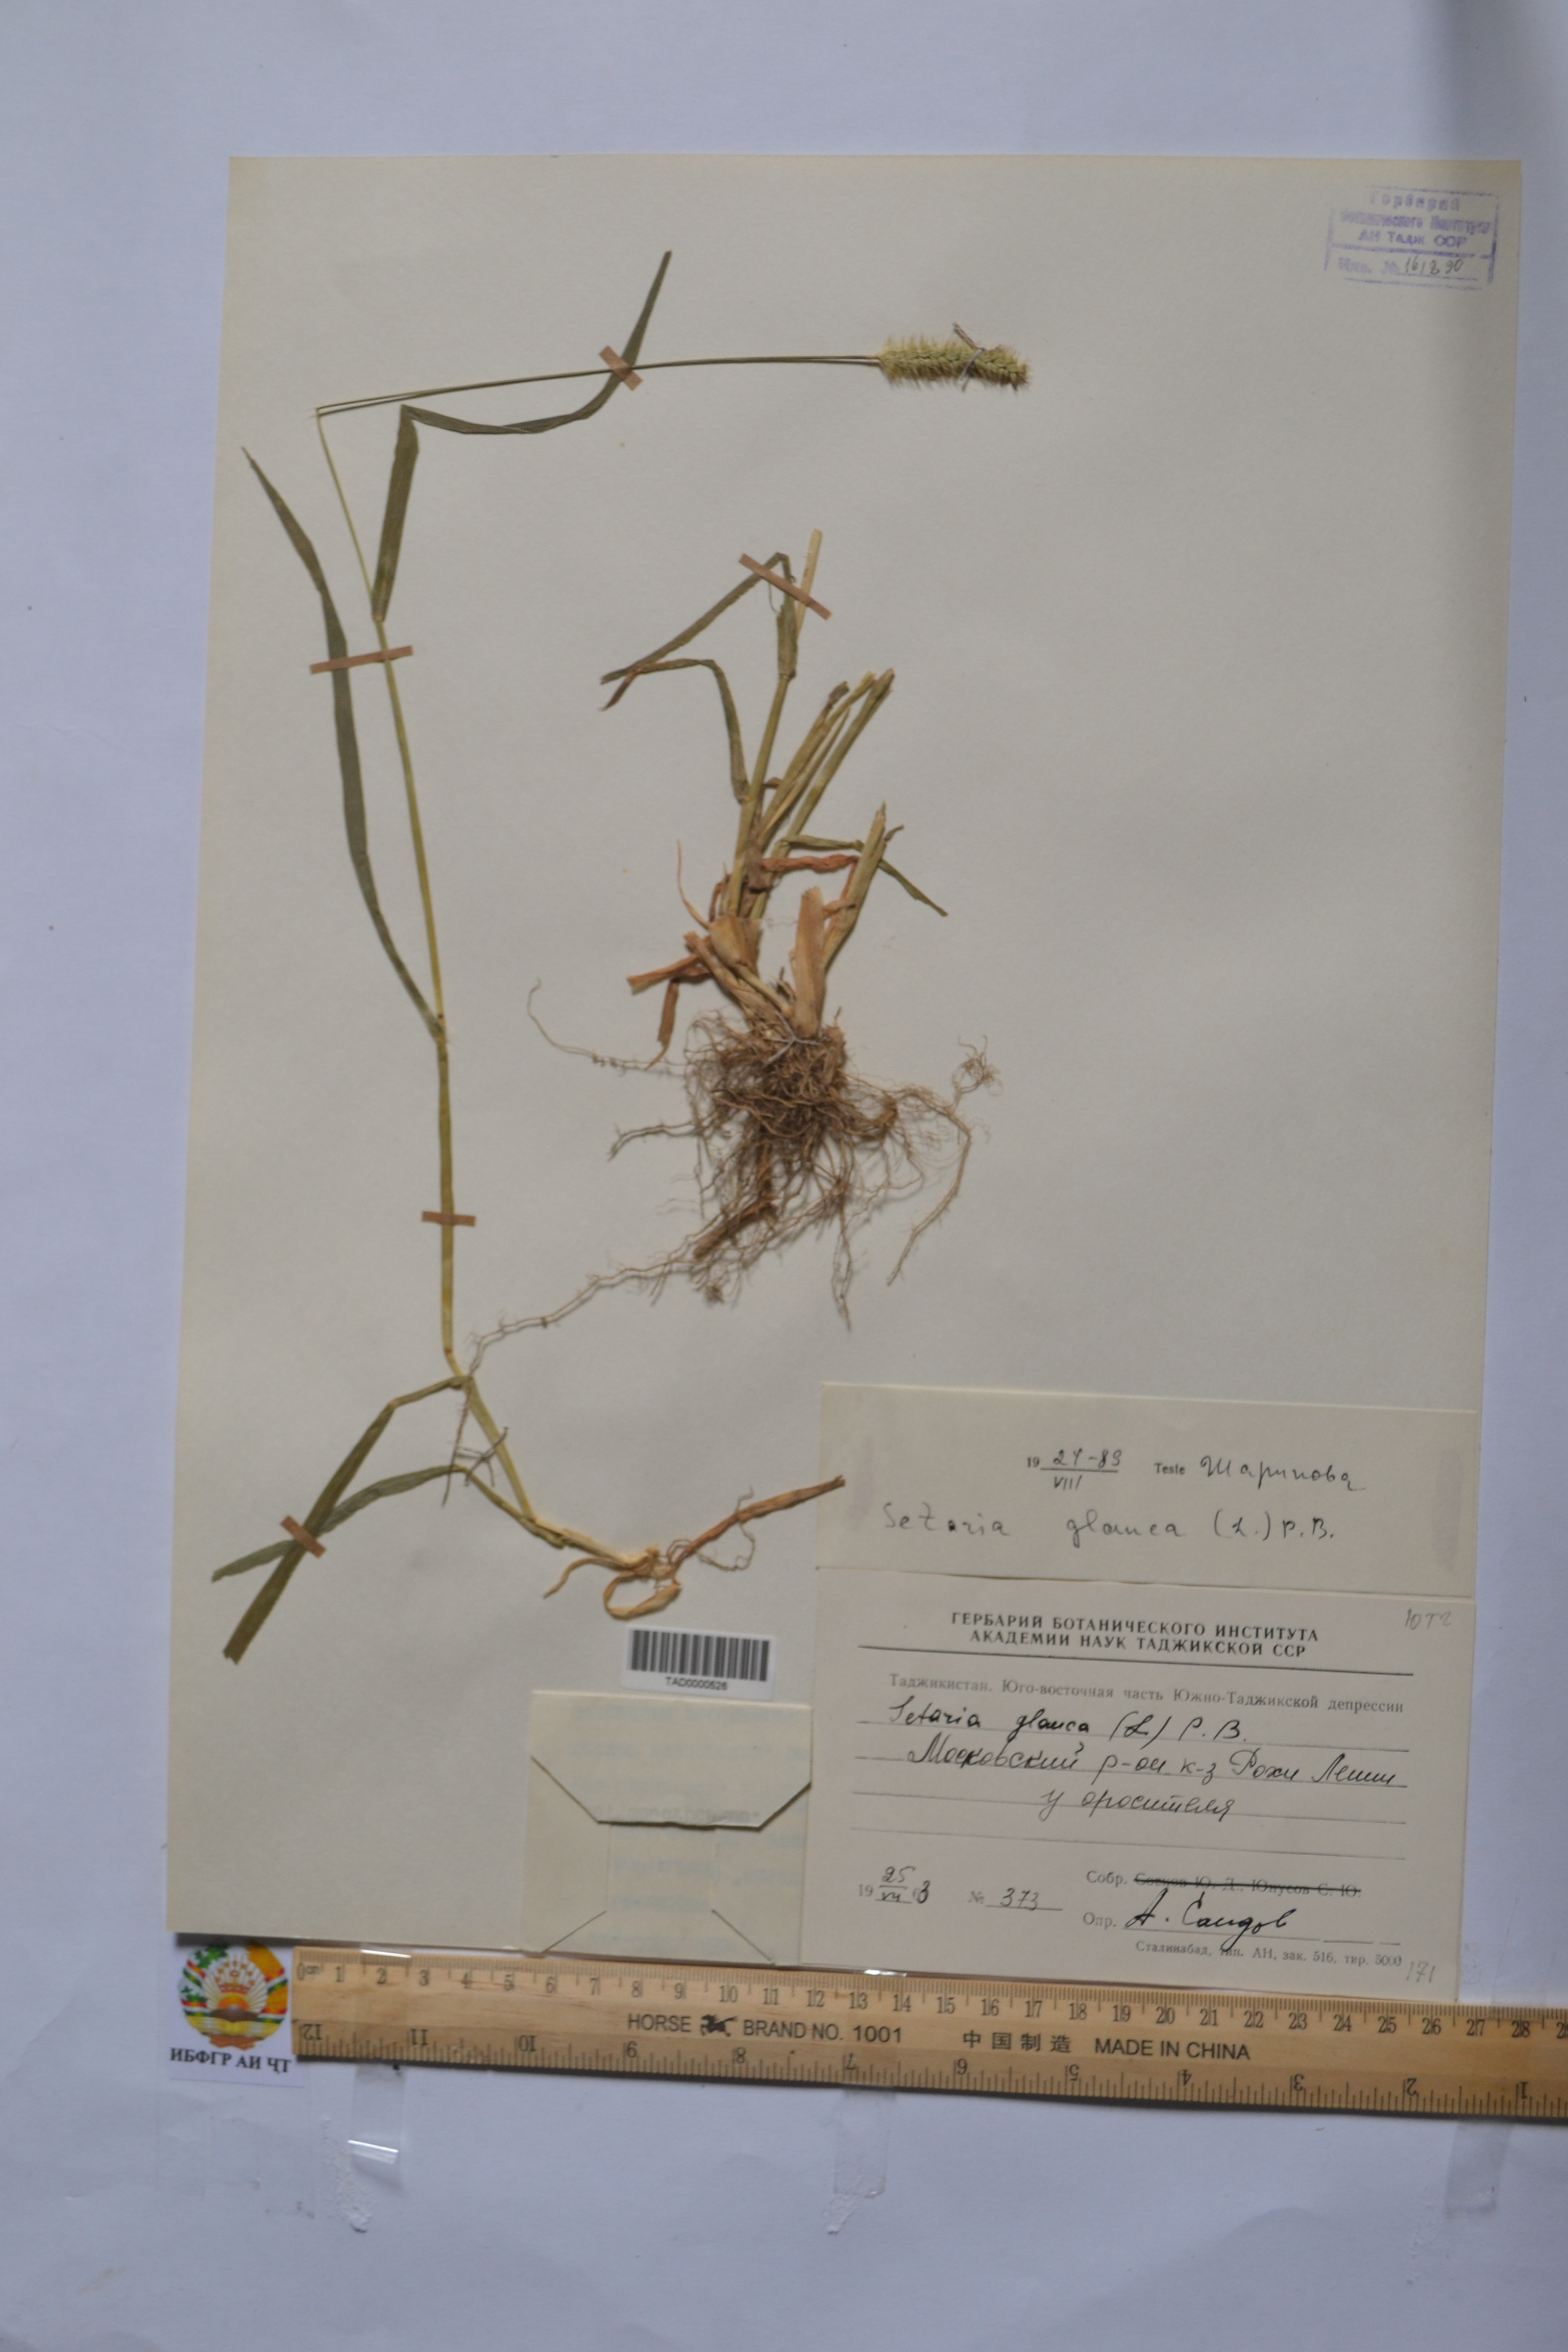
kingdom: Plantae
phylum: Tracheophyta
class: Liliopsida
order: Poales
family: Poaceae
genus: Cenchrus
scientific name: Cenchrus americanus
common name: Pearl millet
